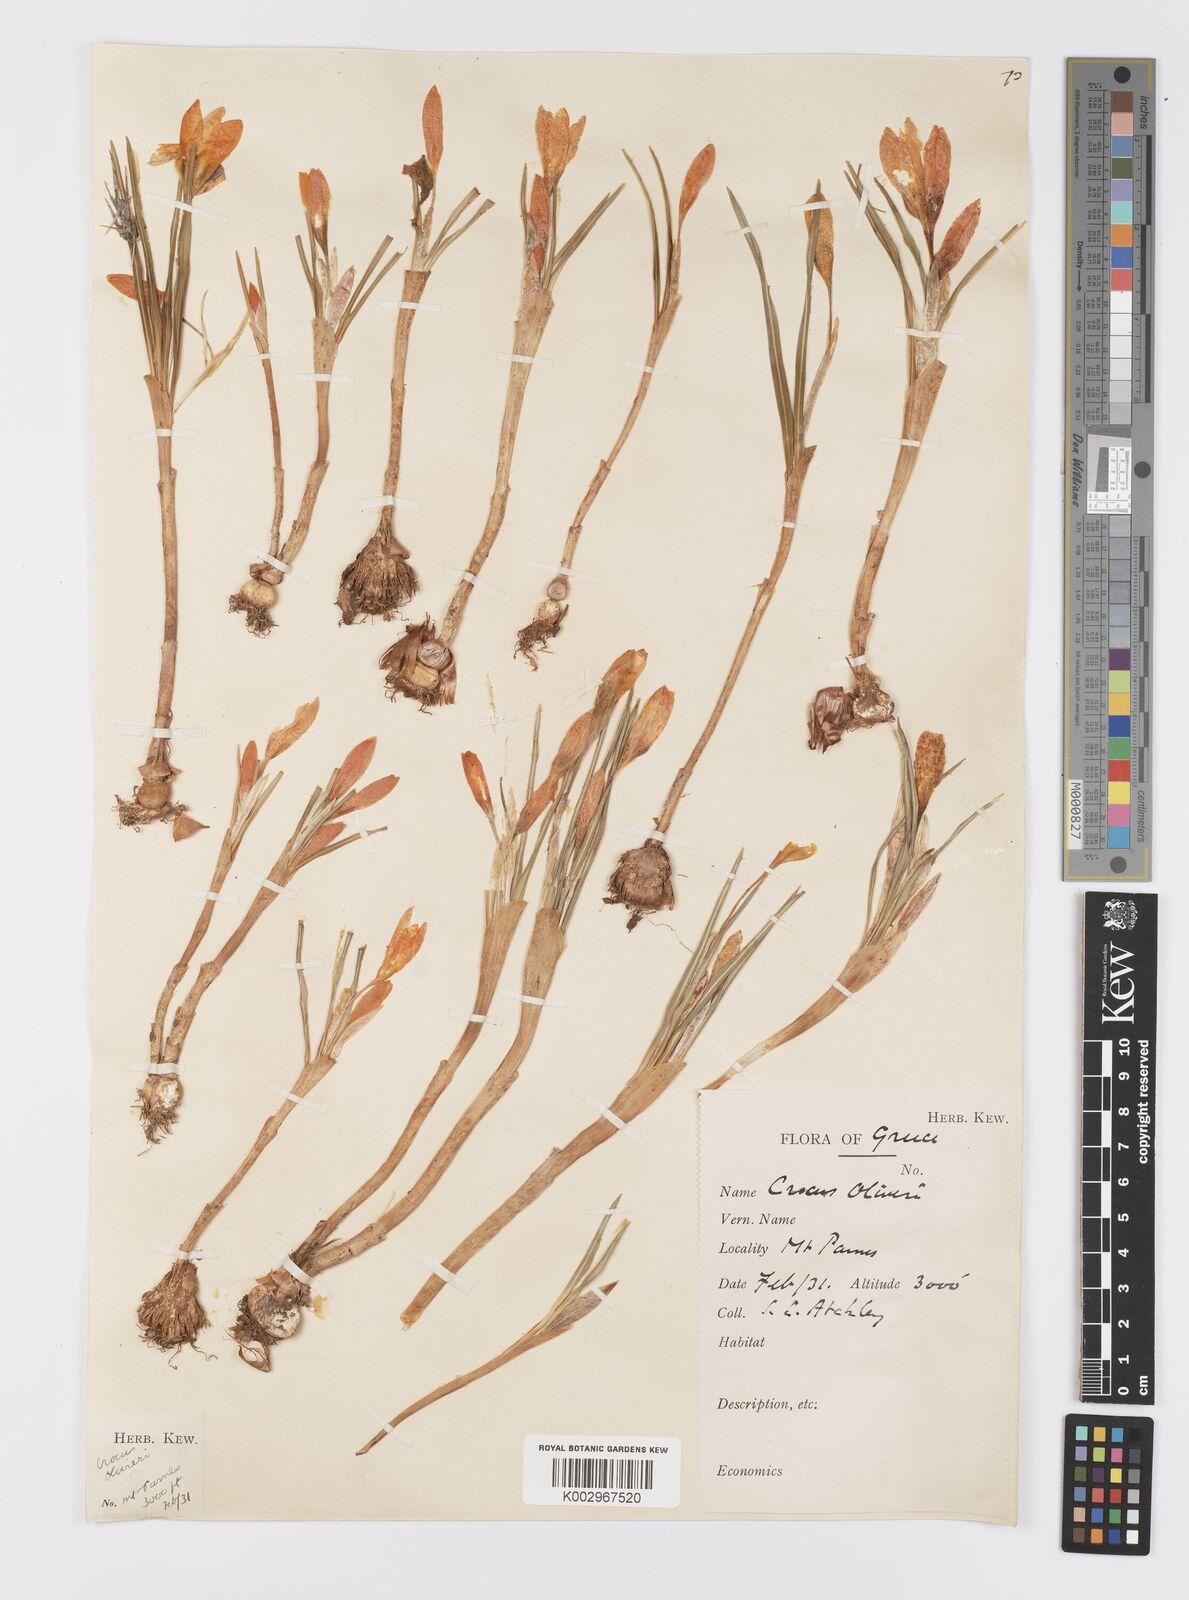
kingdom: Plantae
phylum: Tracheophyta
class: Liliopsida
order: Asparagales
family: Iridaceae
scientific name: Iridaceae
